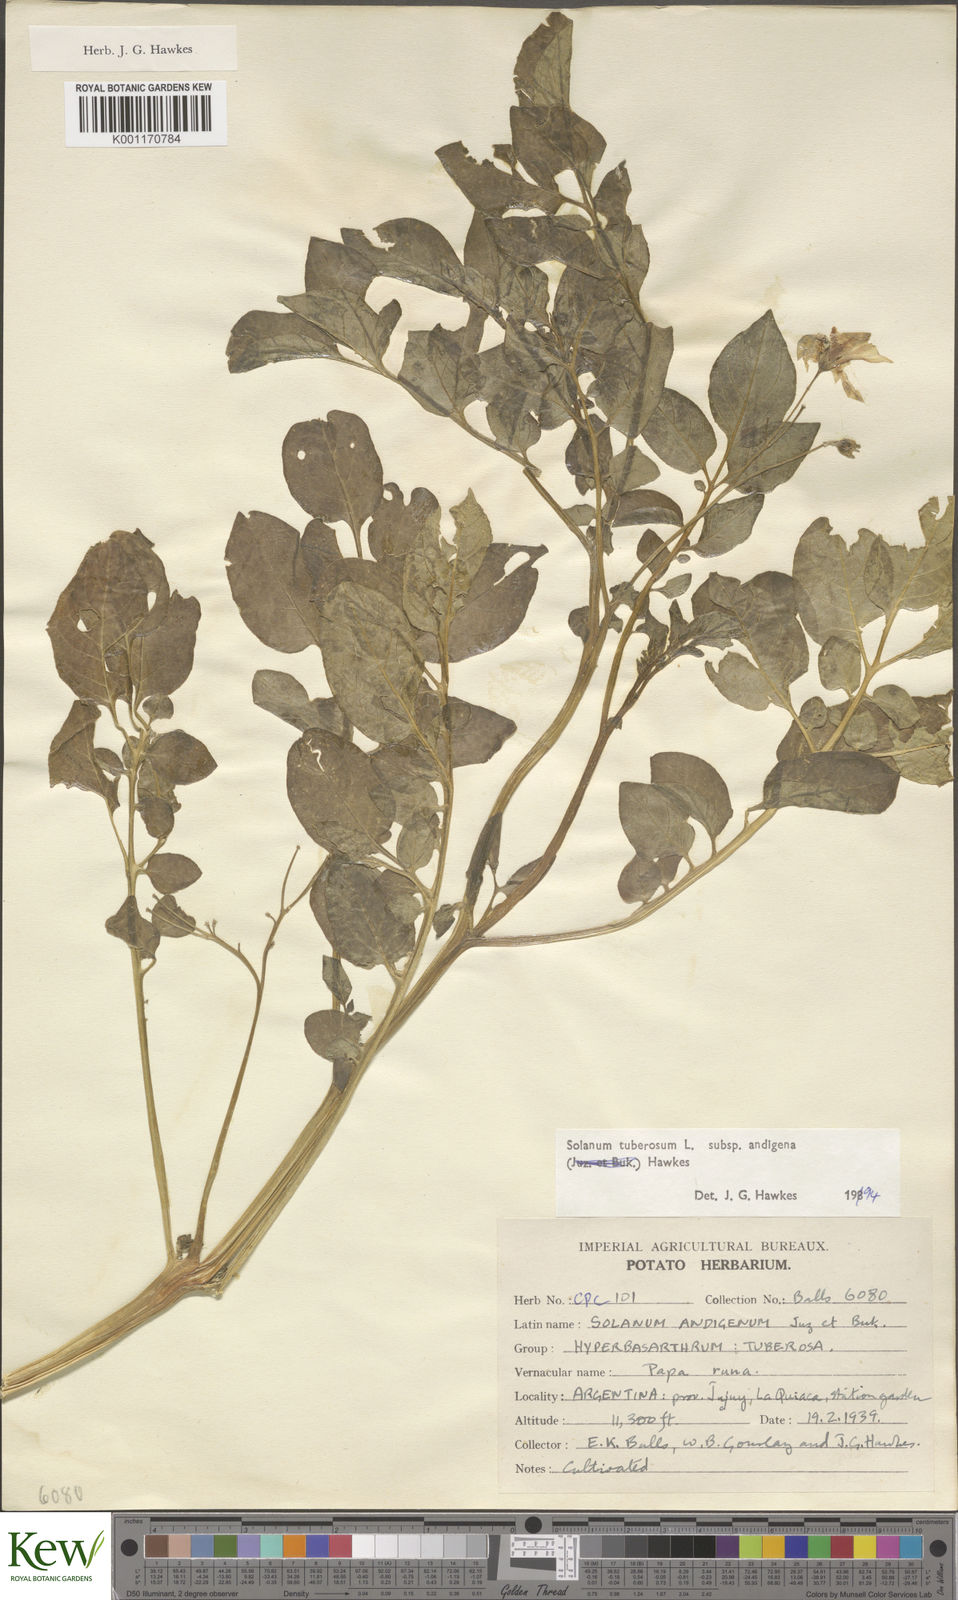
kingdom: Plantae
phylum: Tracheophyta
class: Magnoliopsida
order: Solanales
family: Solanaceae
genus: Solanum
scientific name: Solanum tuberosum
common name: Potato
